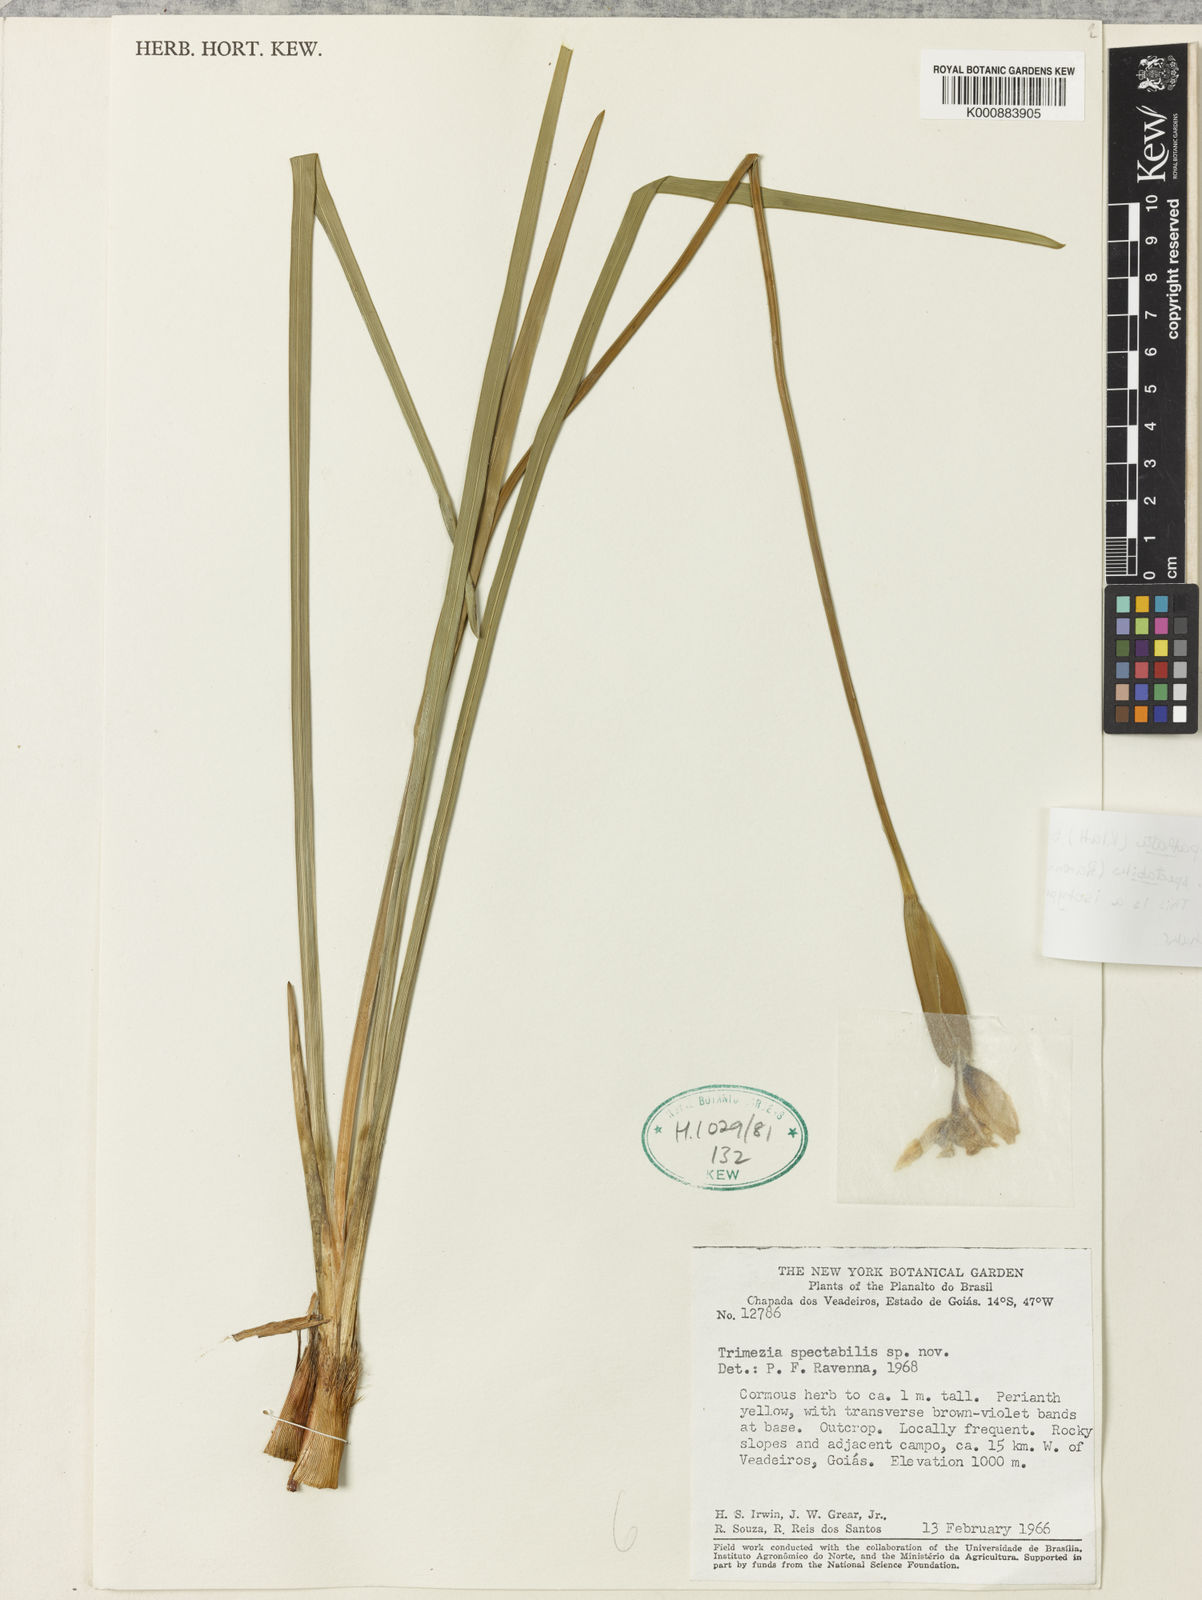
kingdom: Plantae
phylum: Tracheophyta
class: Liliopsida
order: Asparagales
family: Iridaceae
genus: Trimezia
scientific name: Trimezia spathata
